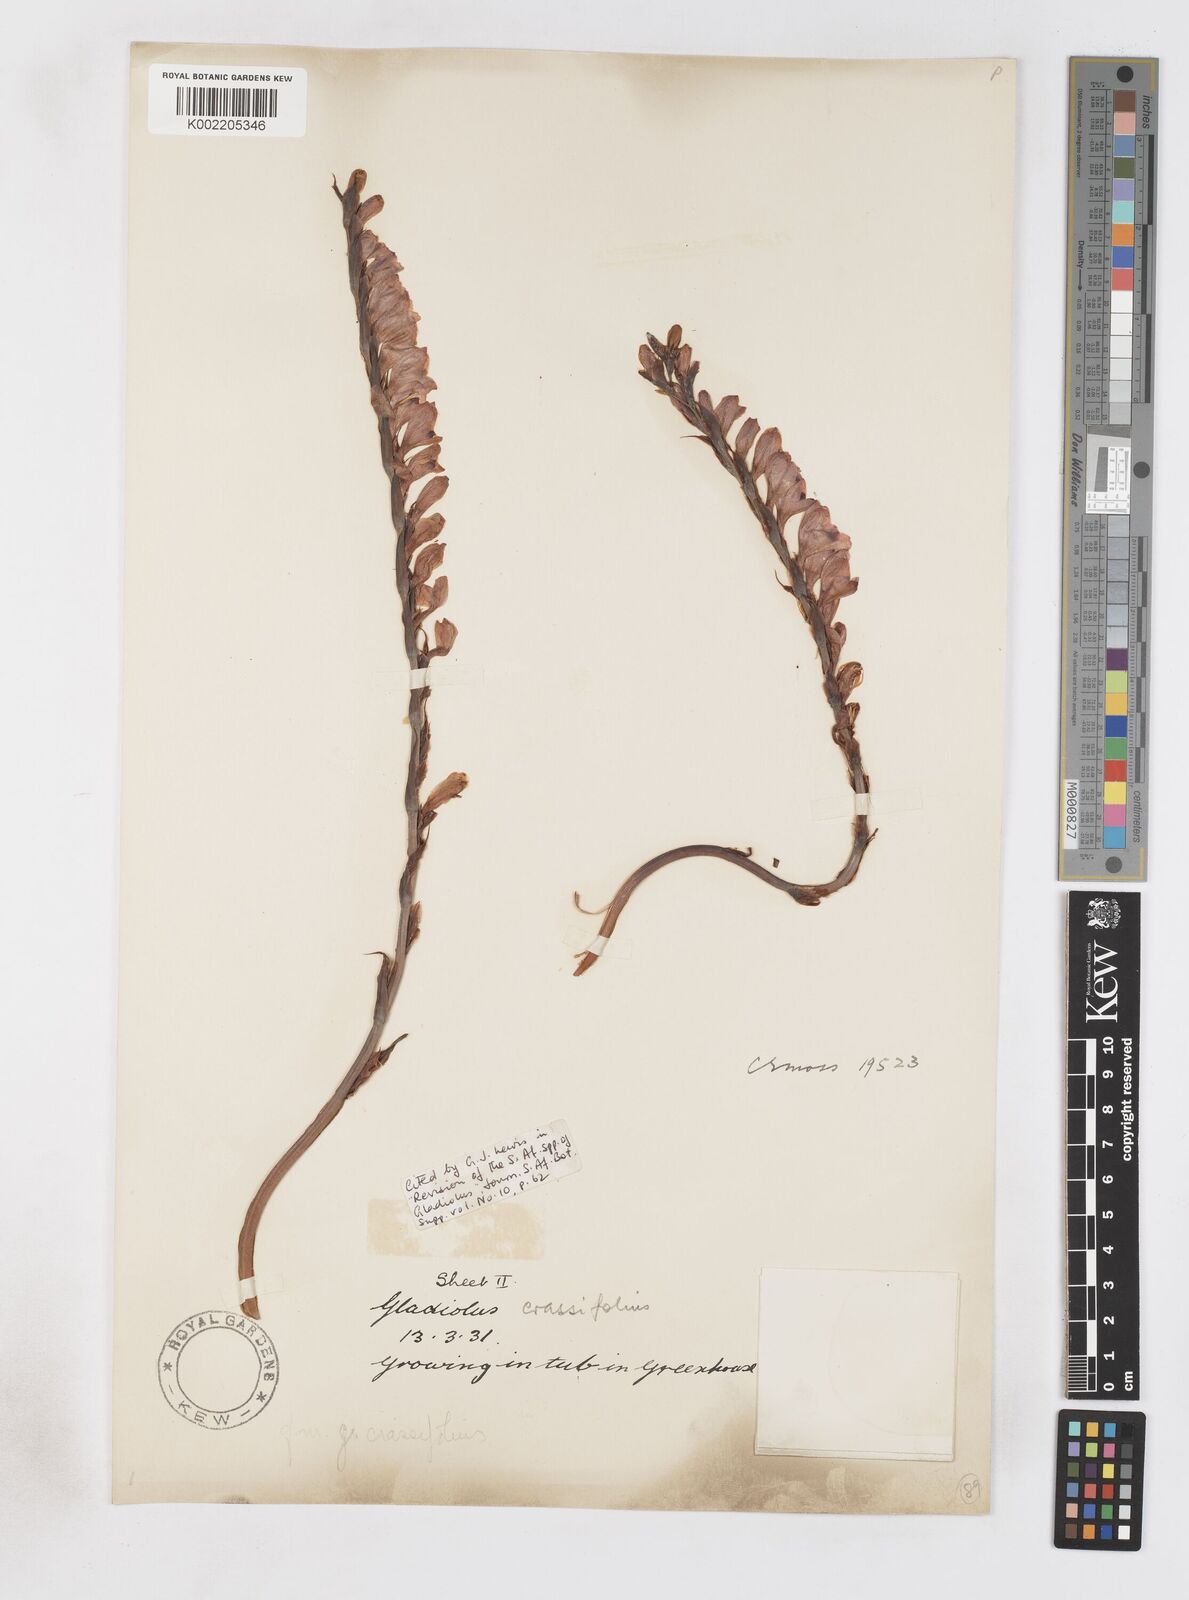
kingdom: Plantae
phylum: Tracheophyta
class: Liliopsida
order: Asparagales
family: Iridaceae
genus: Gladiolus
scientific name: Gladiolus crassifolius
